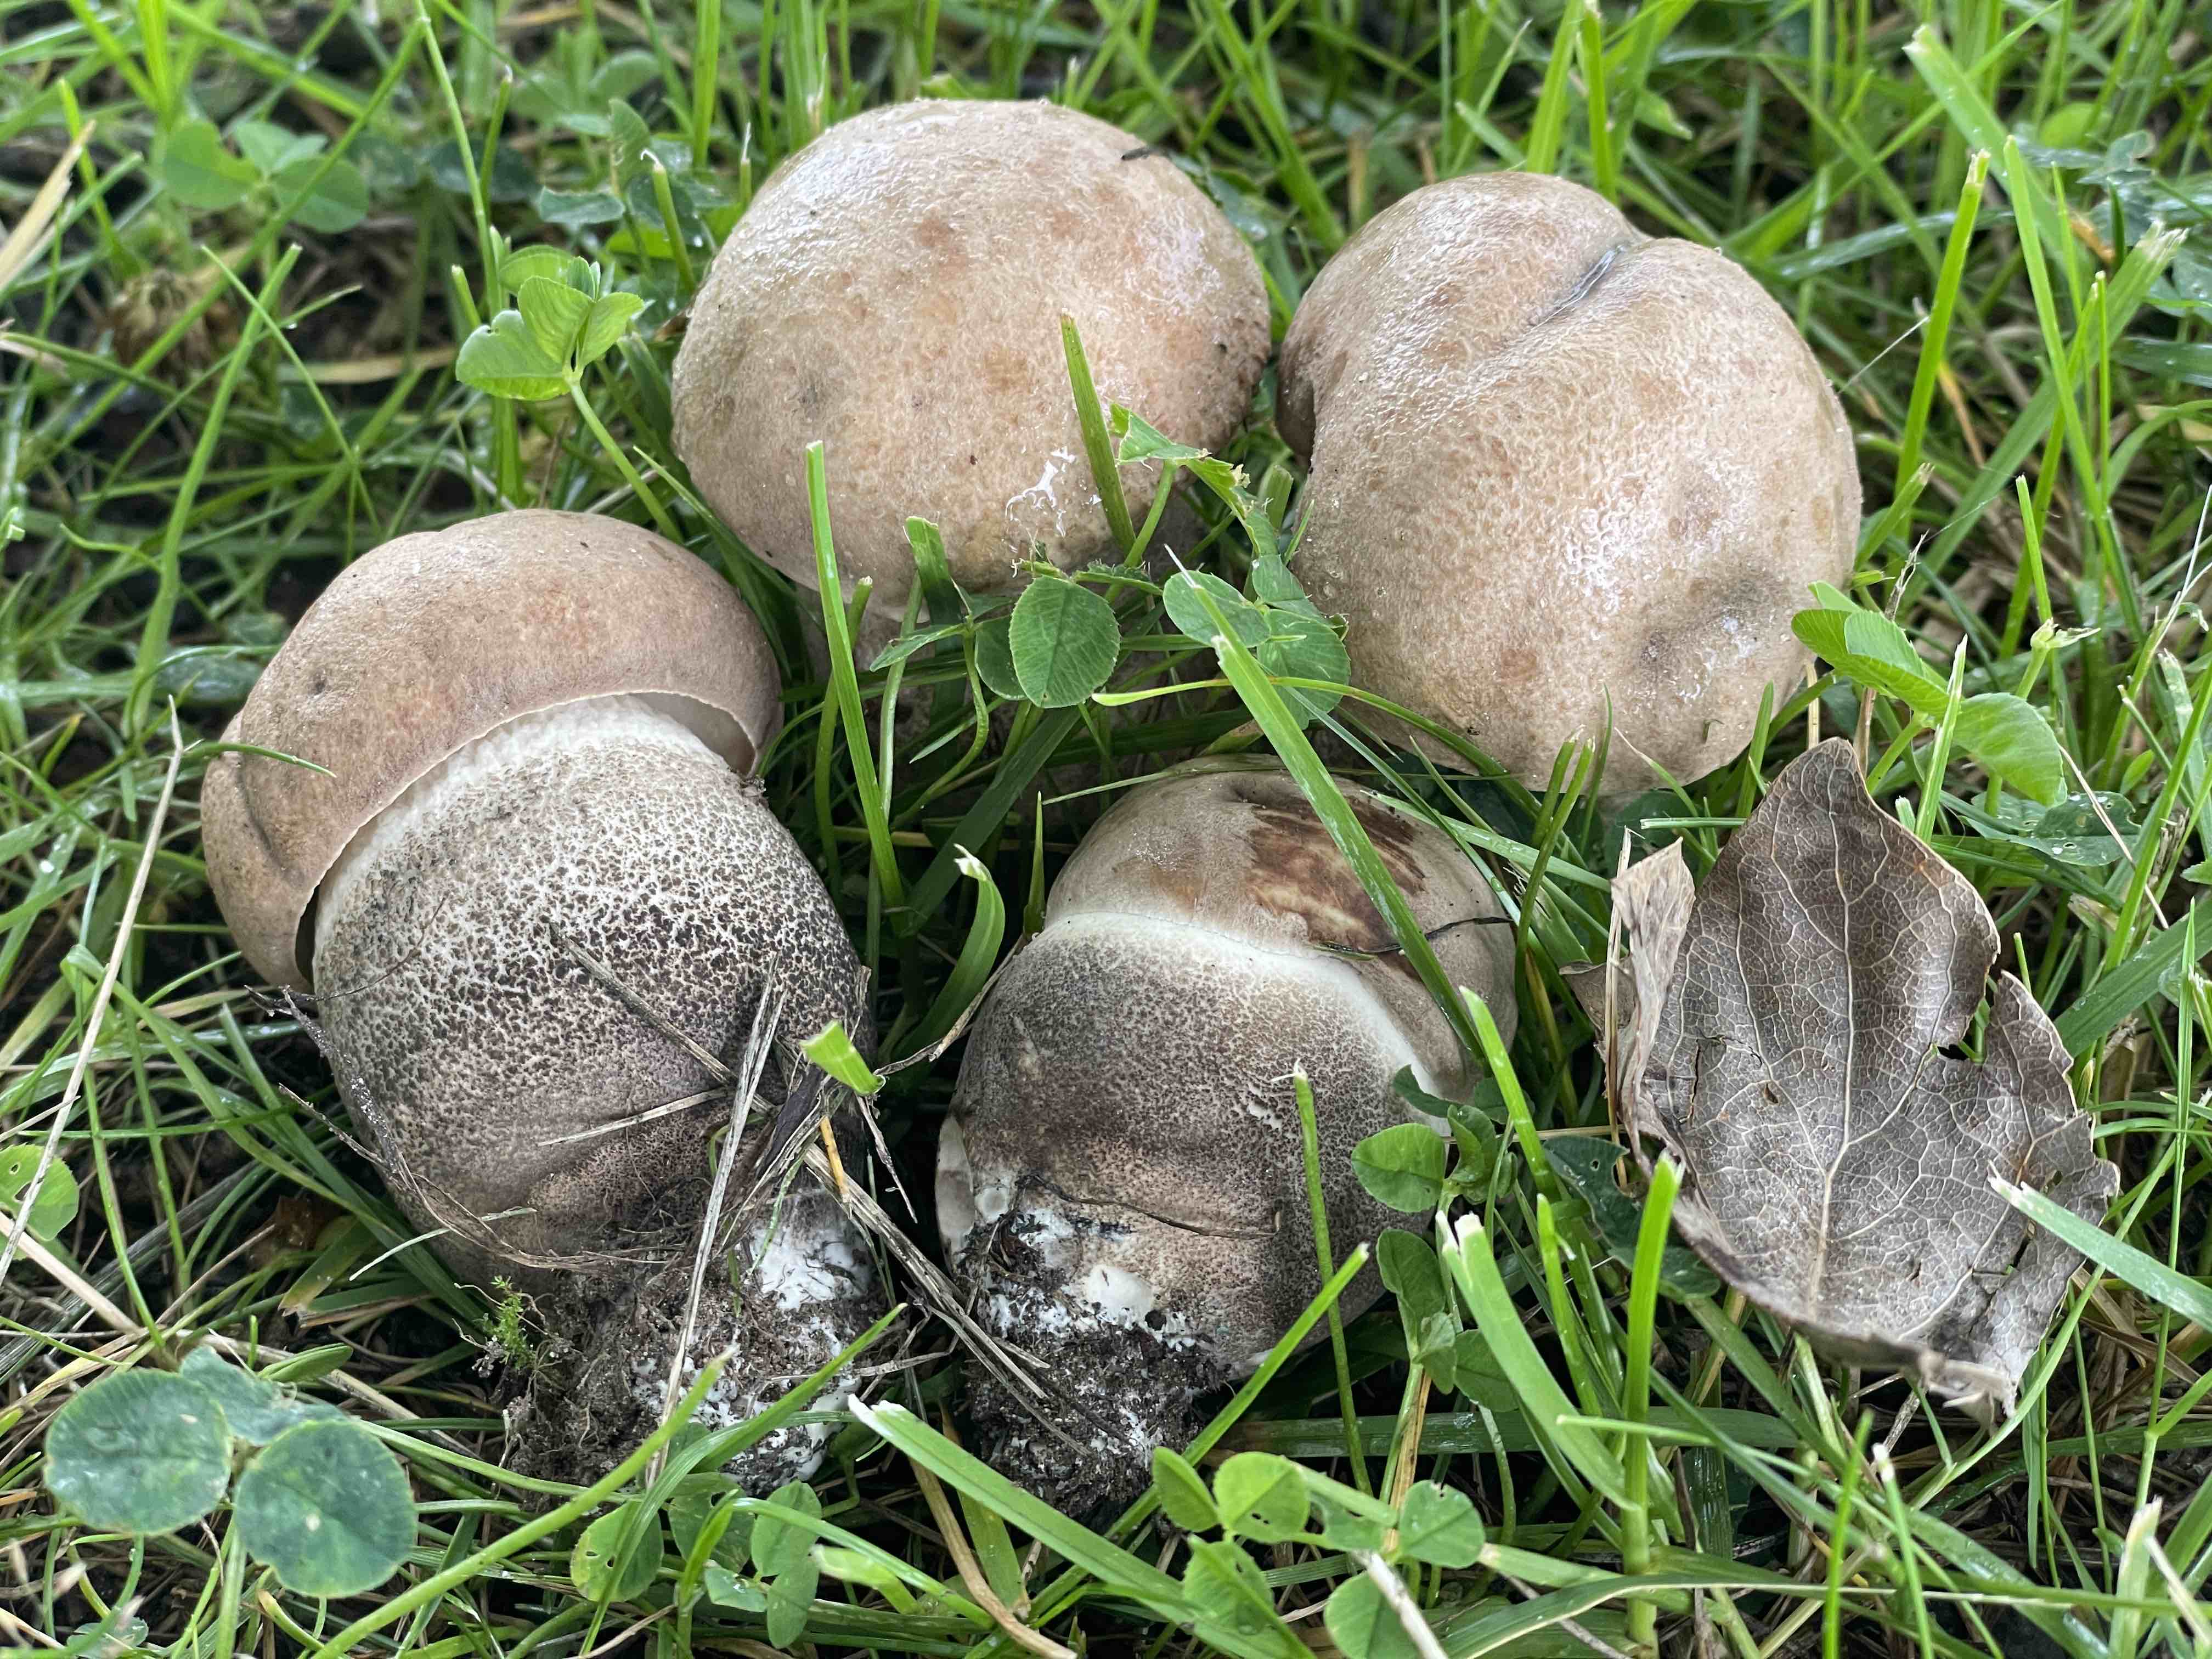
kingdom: Fungi
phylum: Basidiomycota
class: Agaricomycetes
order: Boletales
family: Boletaceae
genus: Leccinum
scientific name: Leccinum duriusculum
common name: poppel-skælrørhat
